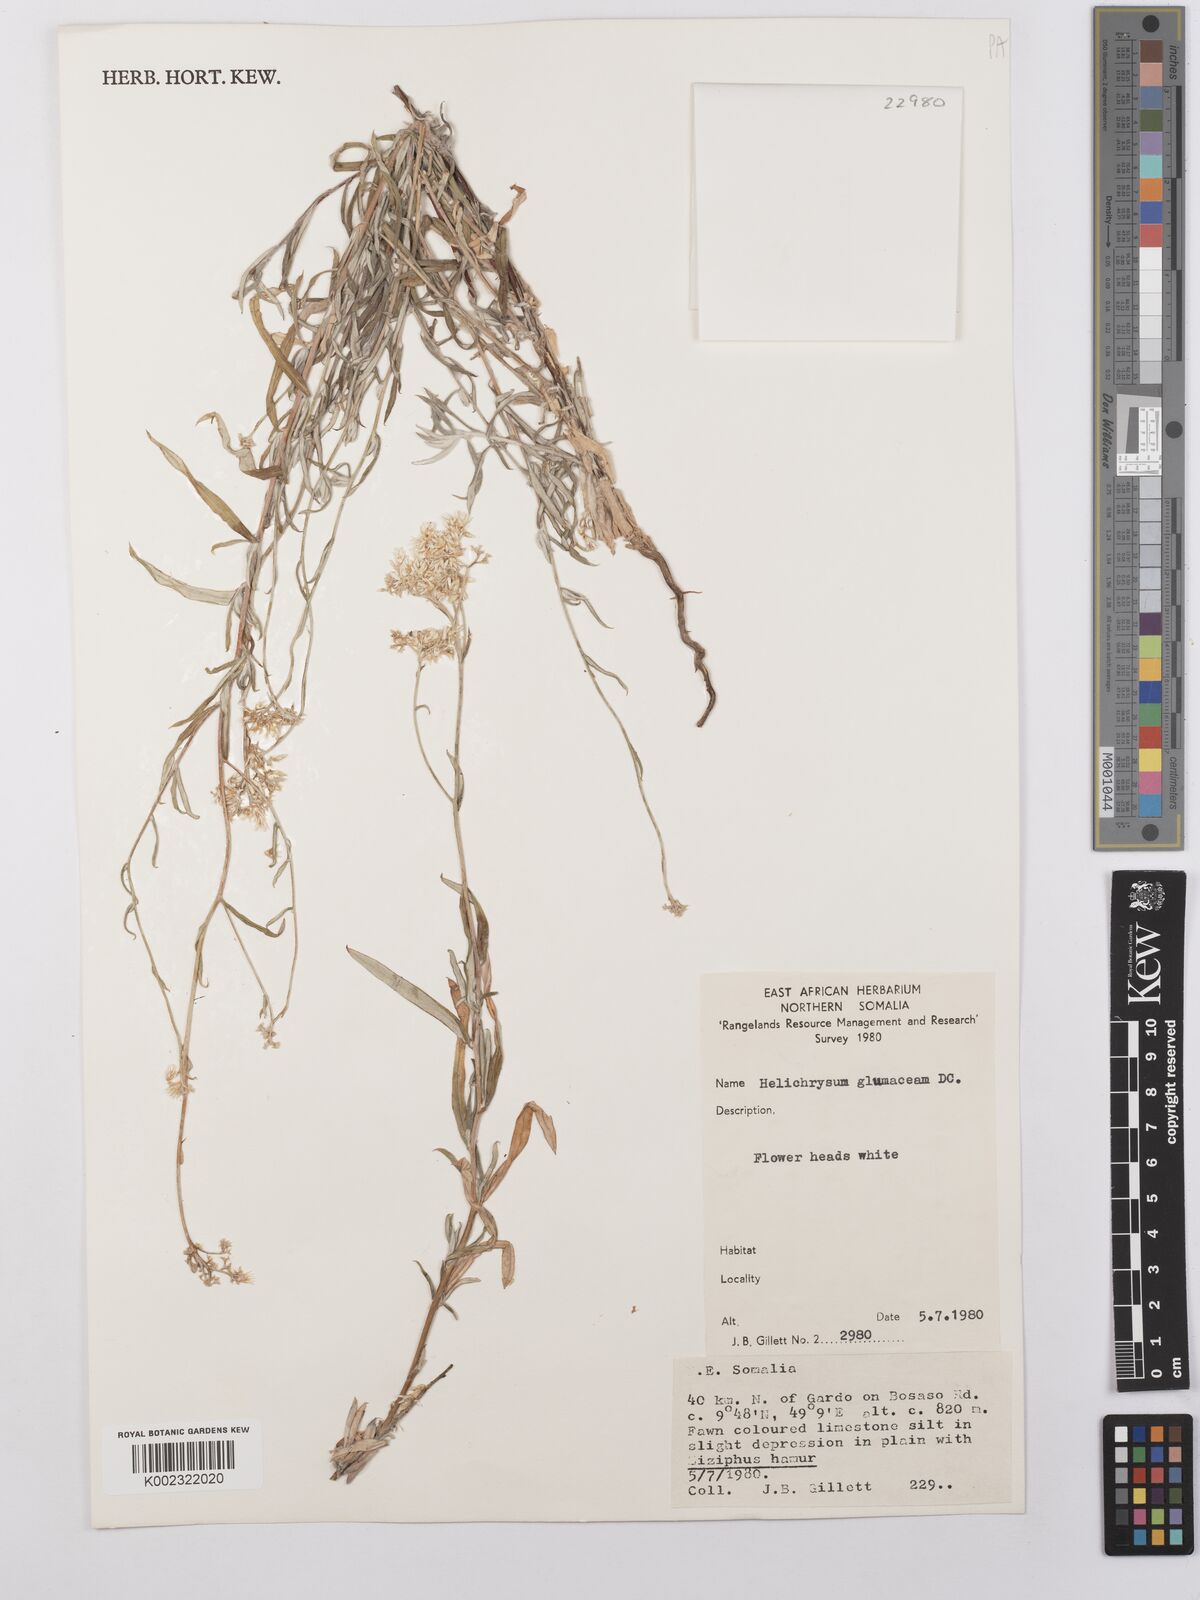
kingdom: Plantae
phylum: Tracheophyta
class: Magnoliopsida
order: Asterales
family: Asteraceae
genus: Helichrysum
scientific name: Helichrysum glumaceum
